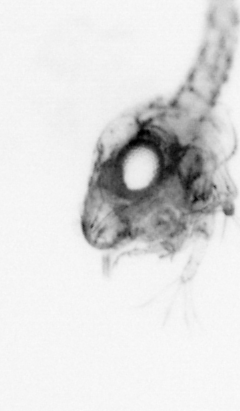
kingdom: Animalia
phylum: Arthropoda
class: Malacostraca
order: Decapoda
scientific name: Decapoda
